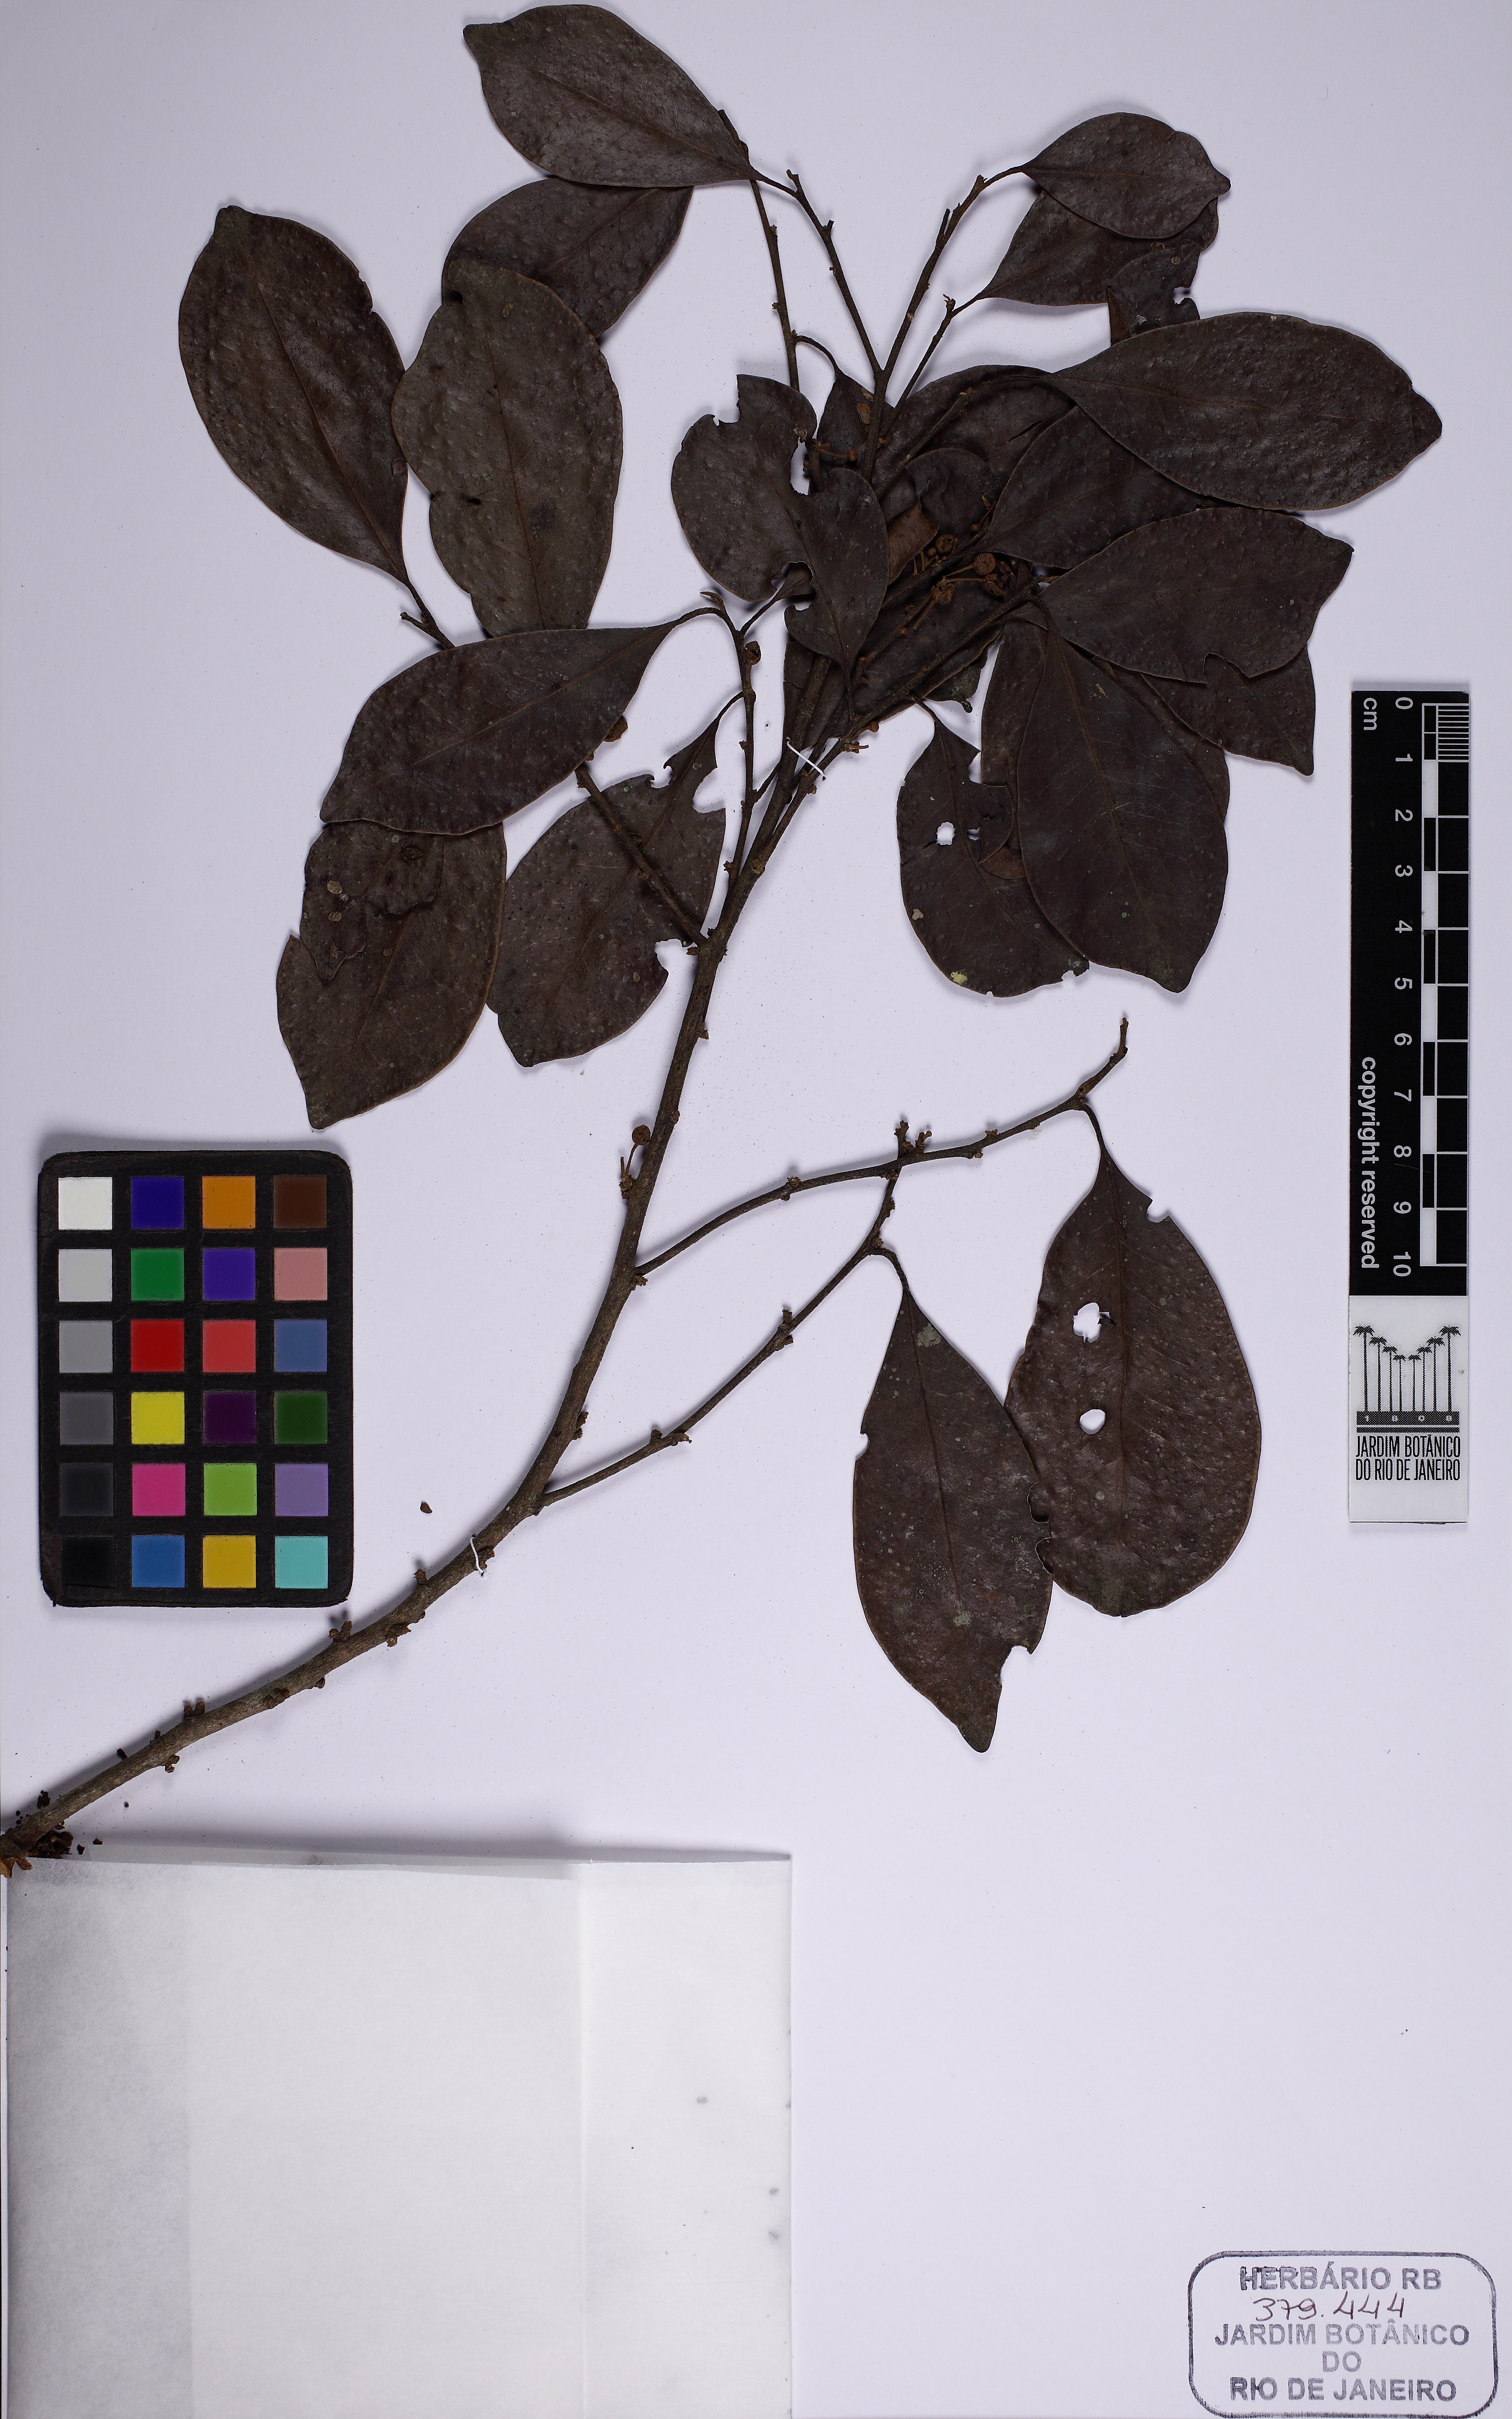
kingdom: Plantae
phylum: Tracheophyta
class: Magnoliopsida
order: Malpighiales
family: Peraceae
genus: Pera
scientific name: Pera glabrata
